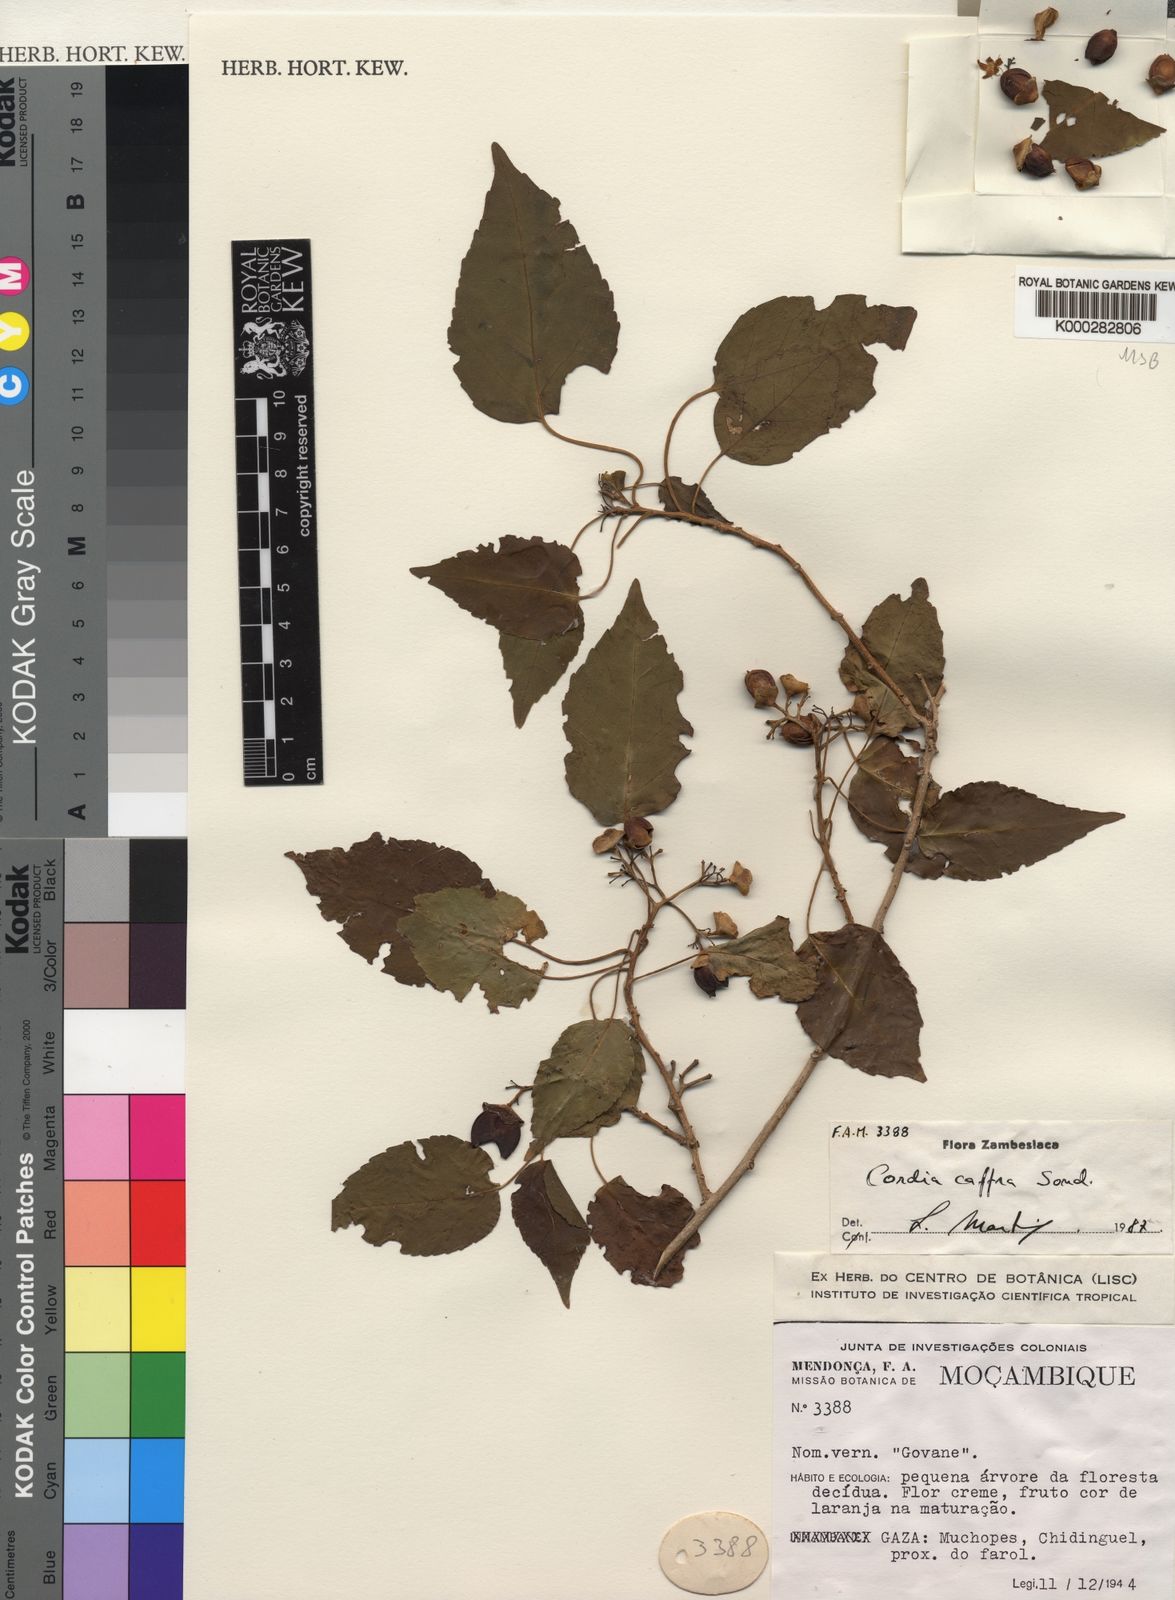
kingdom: Plantae
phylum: Tracheophyta
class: Magnoliopsida
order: Boraginales
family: Cordiaceae
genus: Cordia
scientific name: Cordia caffra
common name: Septee tree
